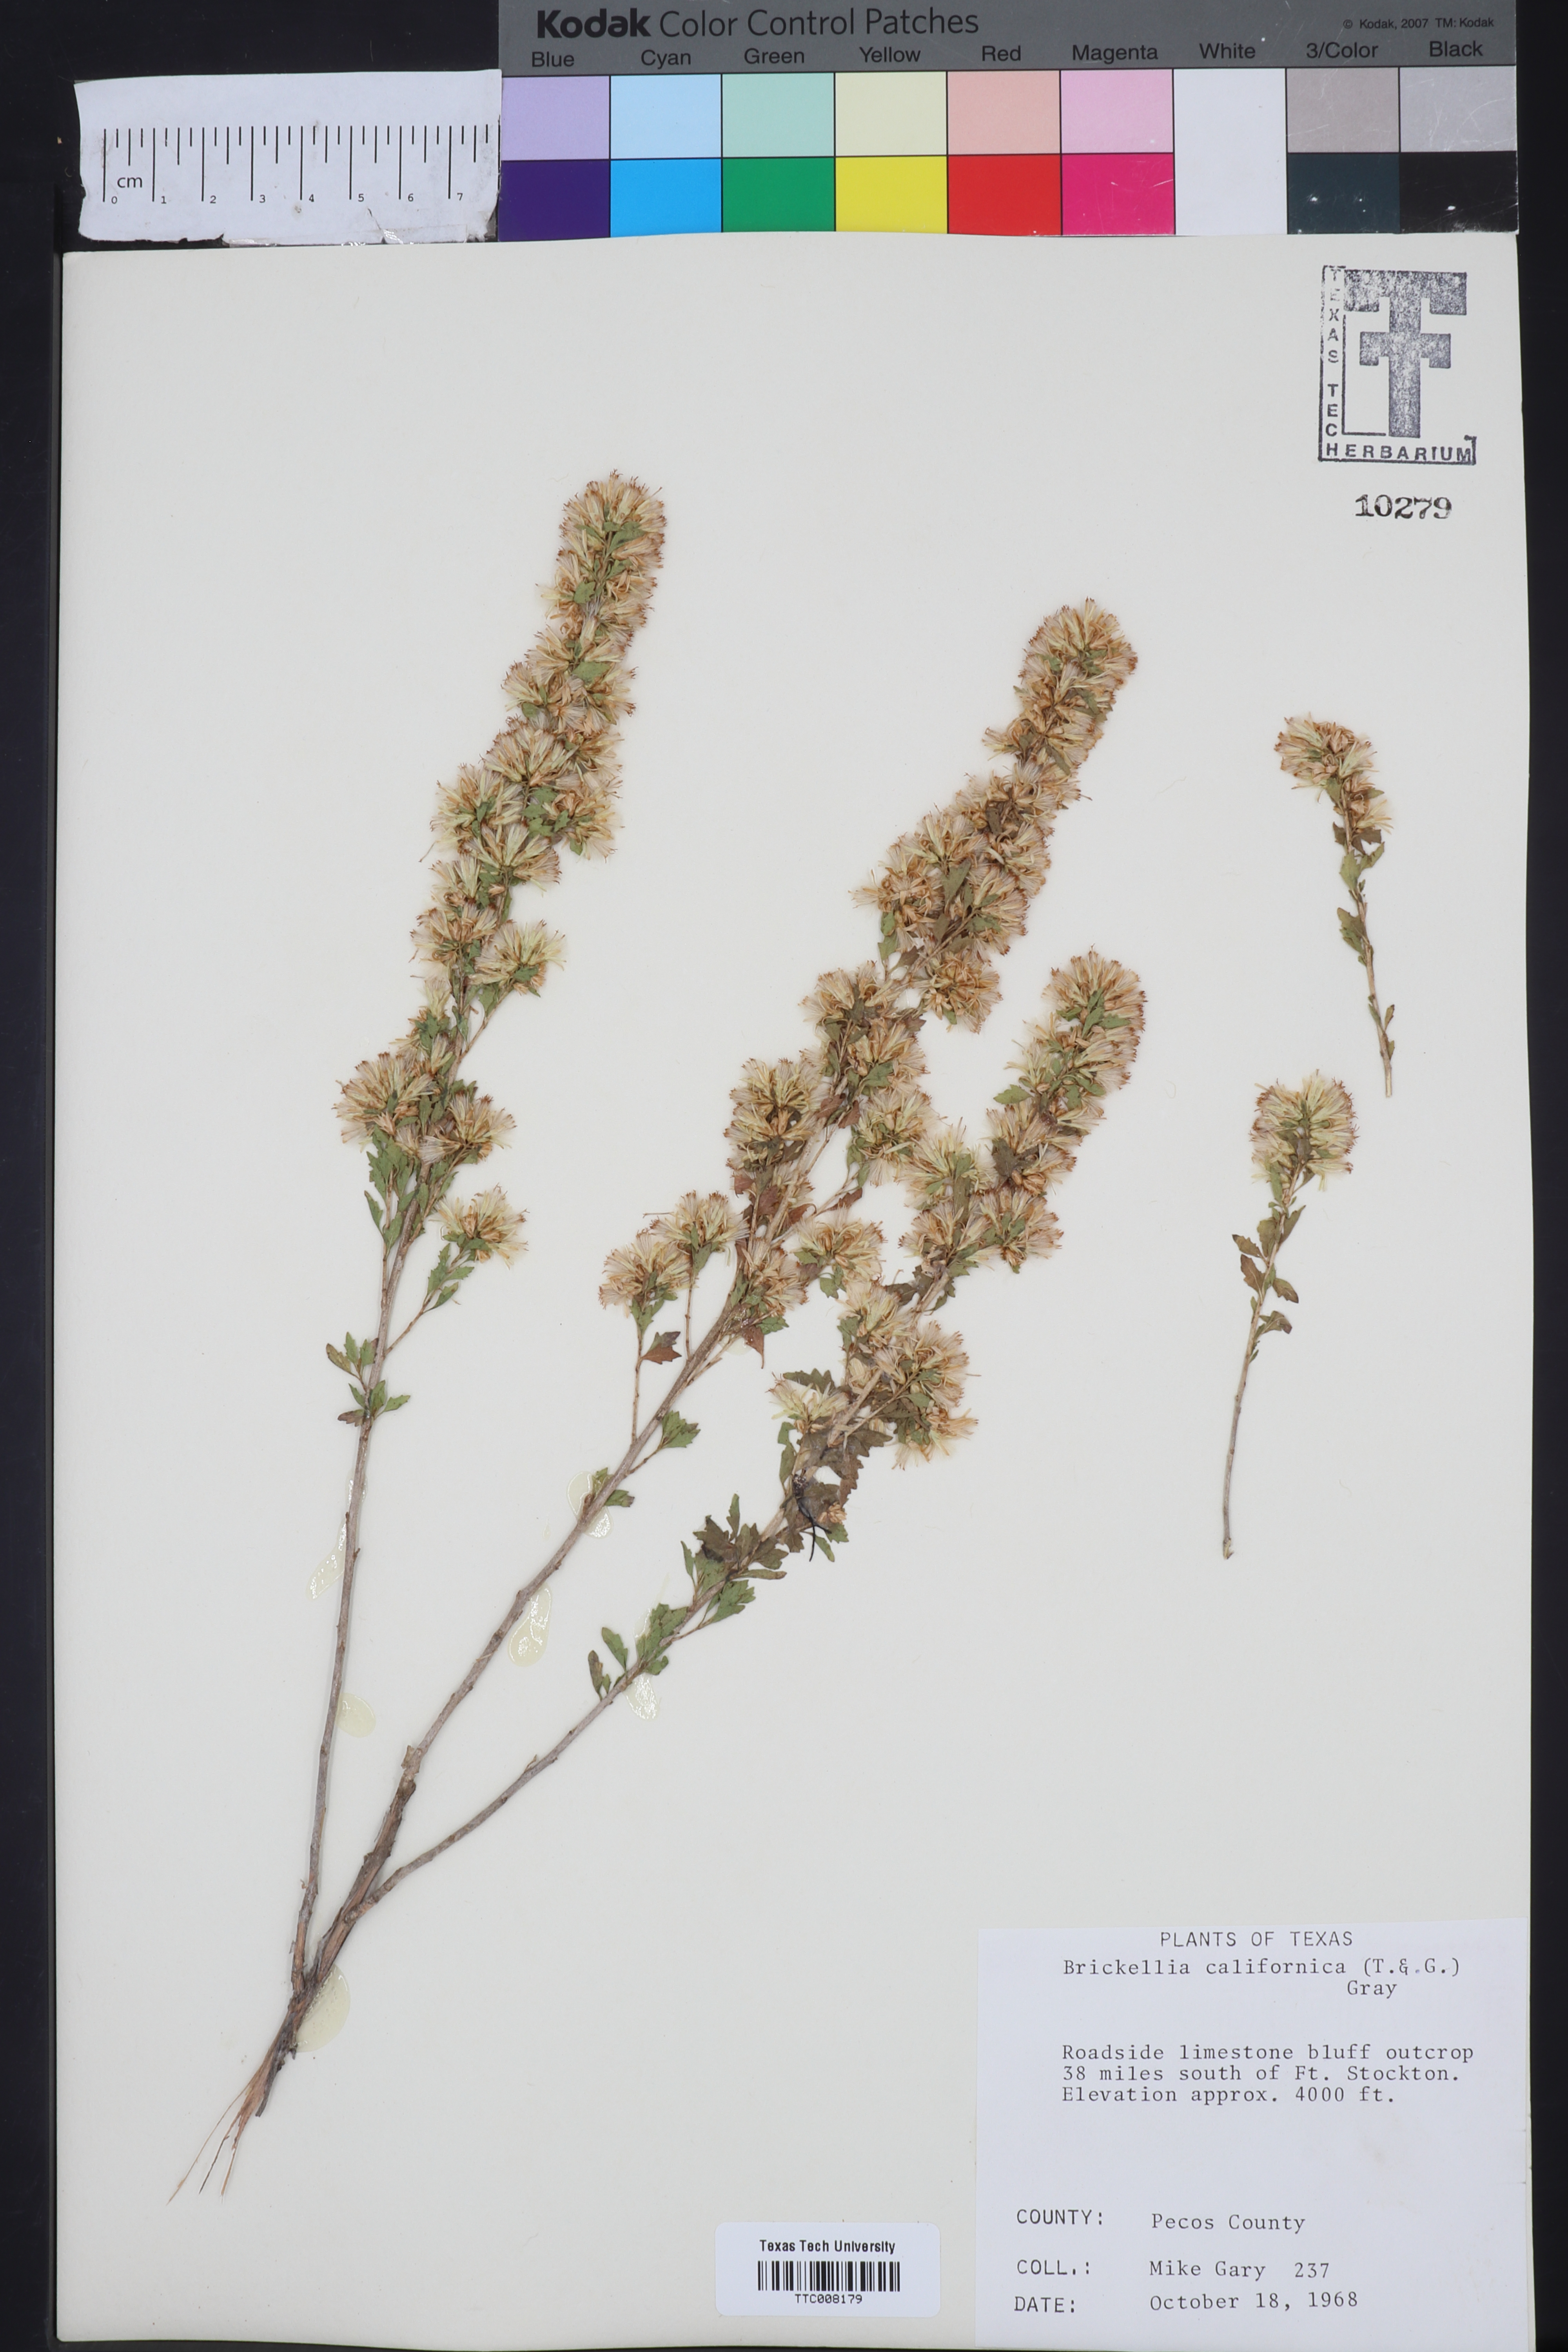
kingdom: Plantae
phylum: Tracheophyta
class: Magnoliopsida
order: Asterales
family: Asteraceae
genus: Brickellia
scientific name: Brickellia californica
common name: California brickellbush
